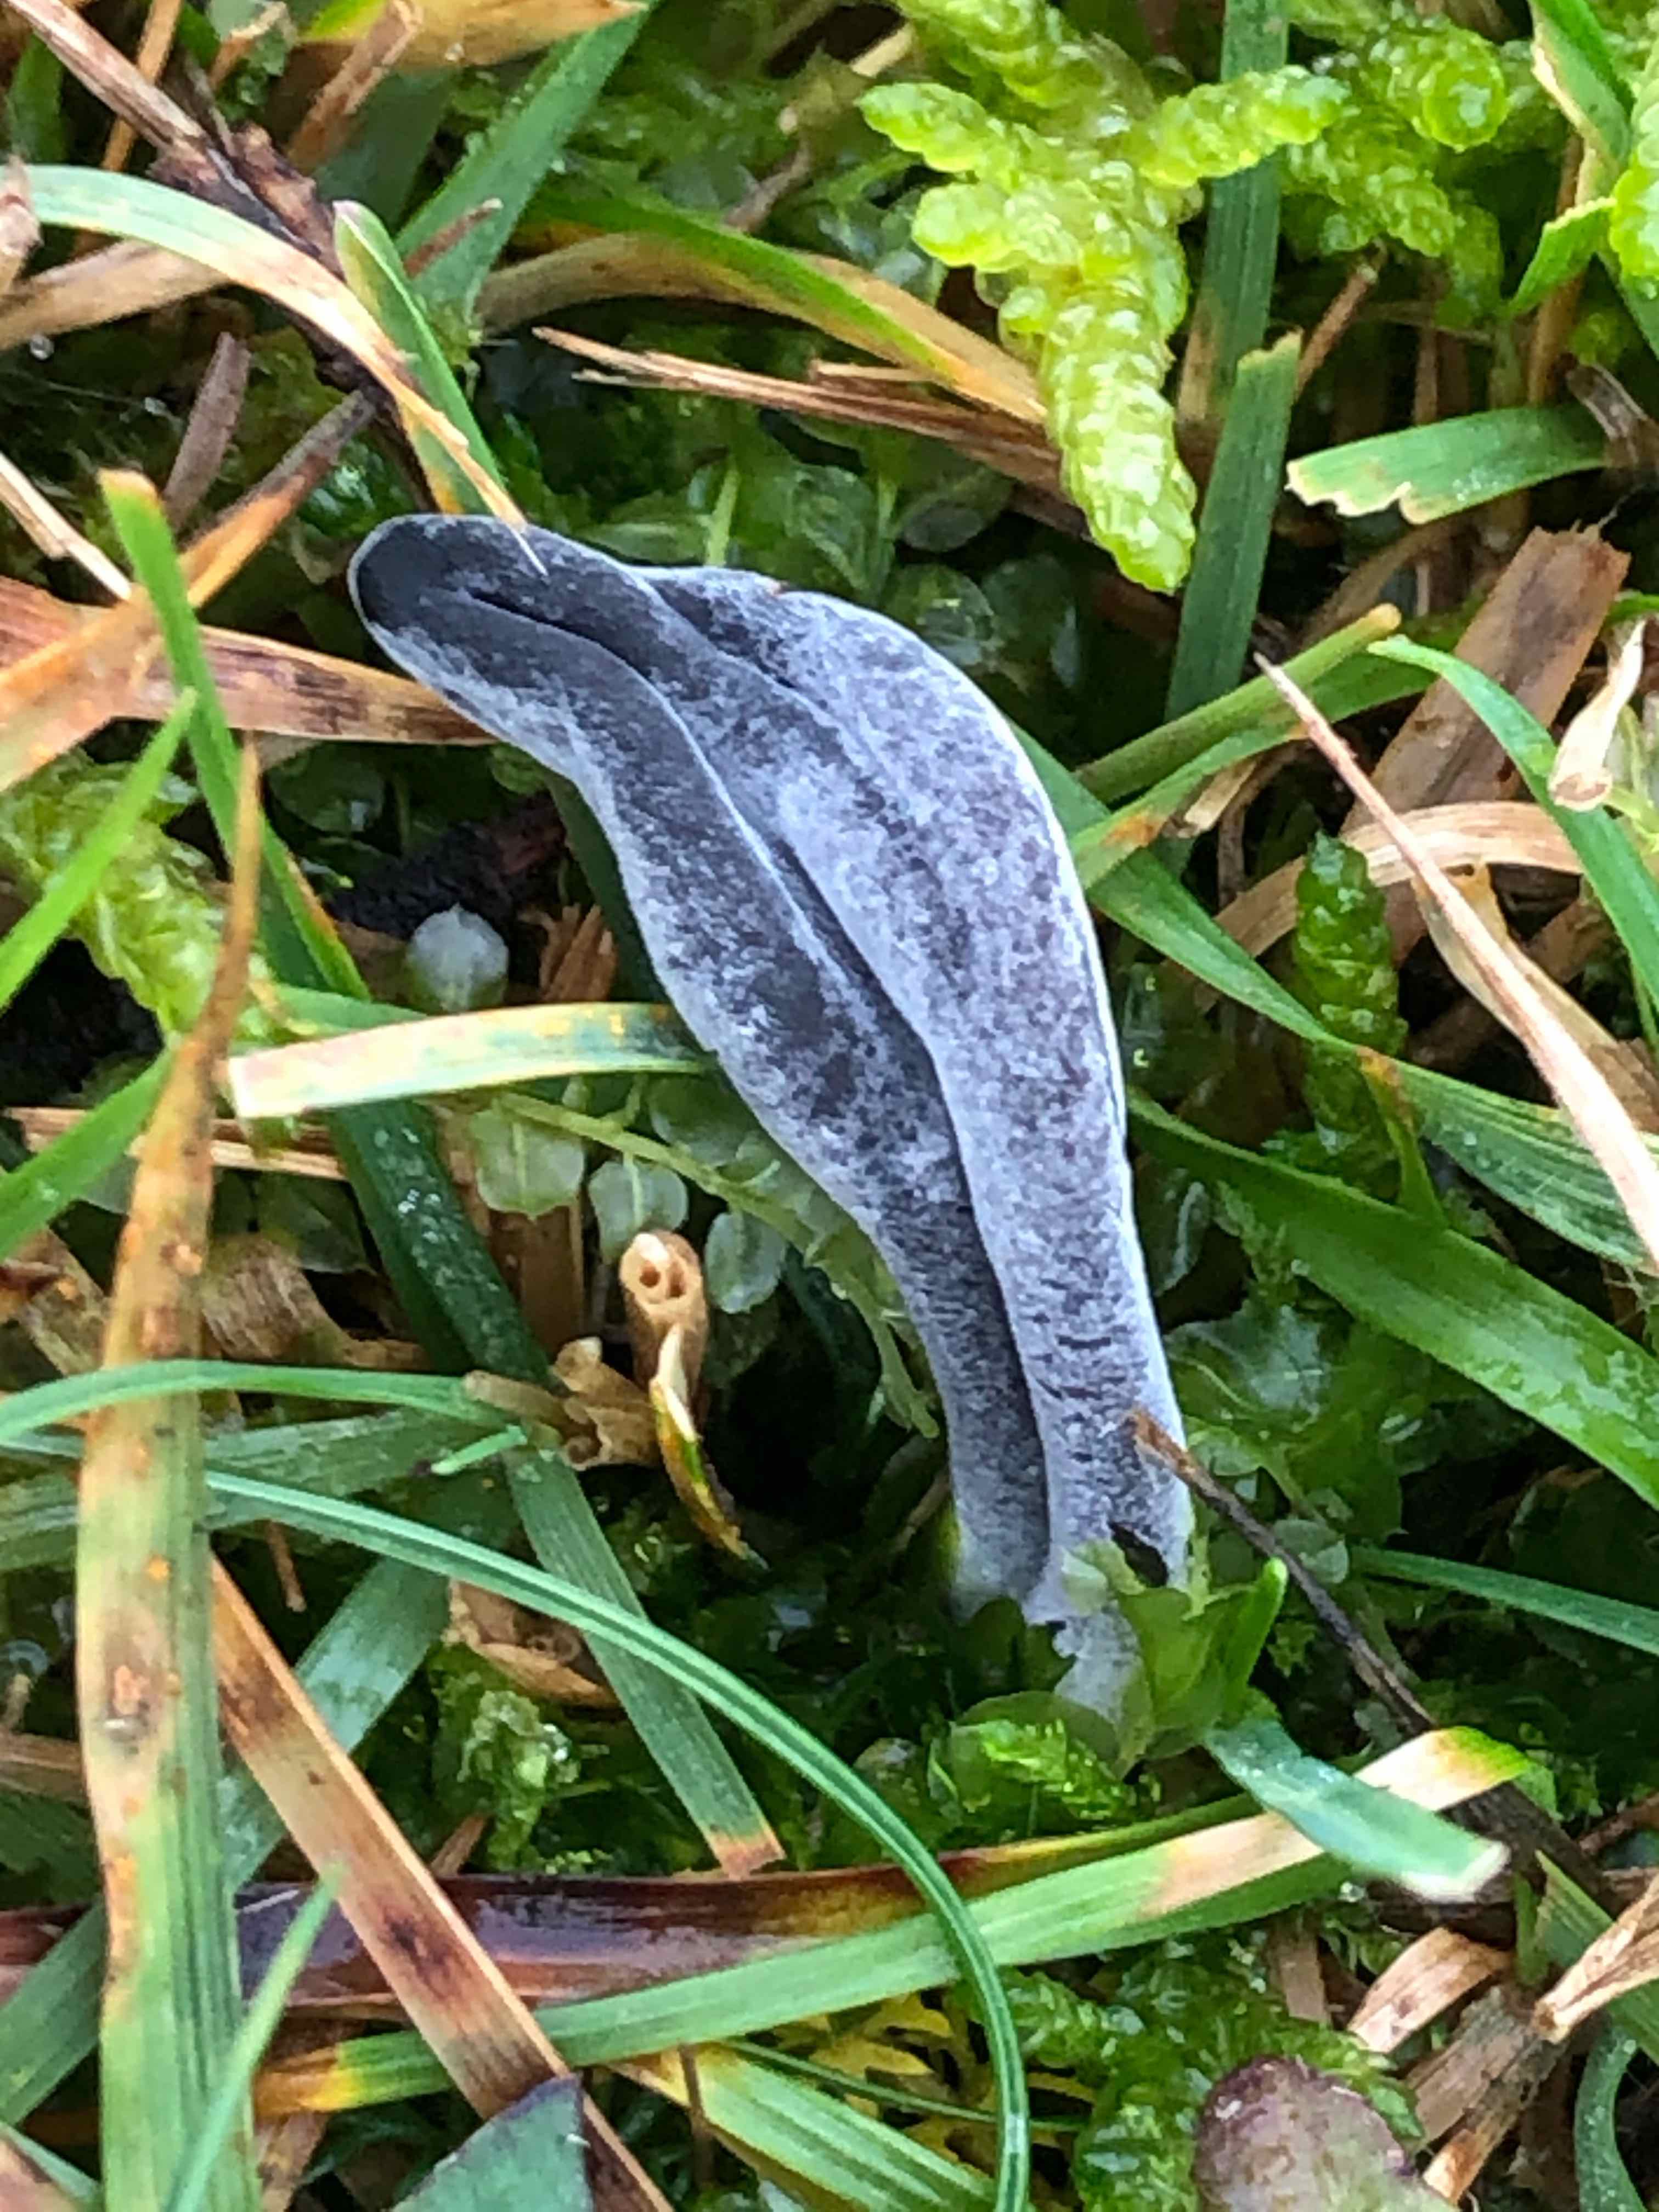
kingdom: Fungi
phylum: Ascomycota
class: Sordariomycetes
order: Hypocreales
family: Hypocreaceae
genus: Hypomyces
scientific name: Hypomyces papulasporae
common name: jordtunge-snylteskorpe
